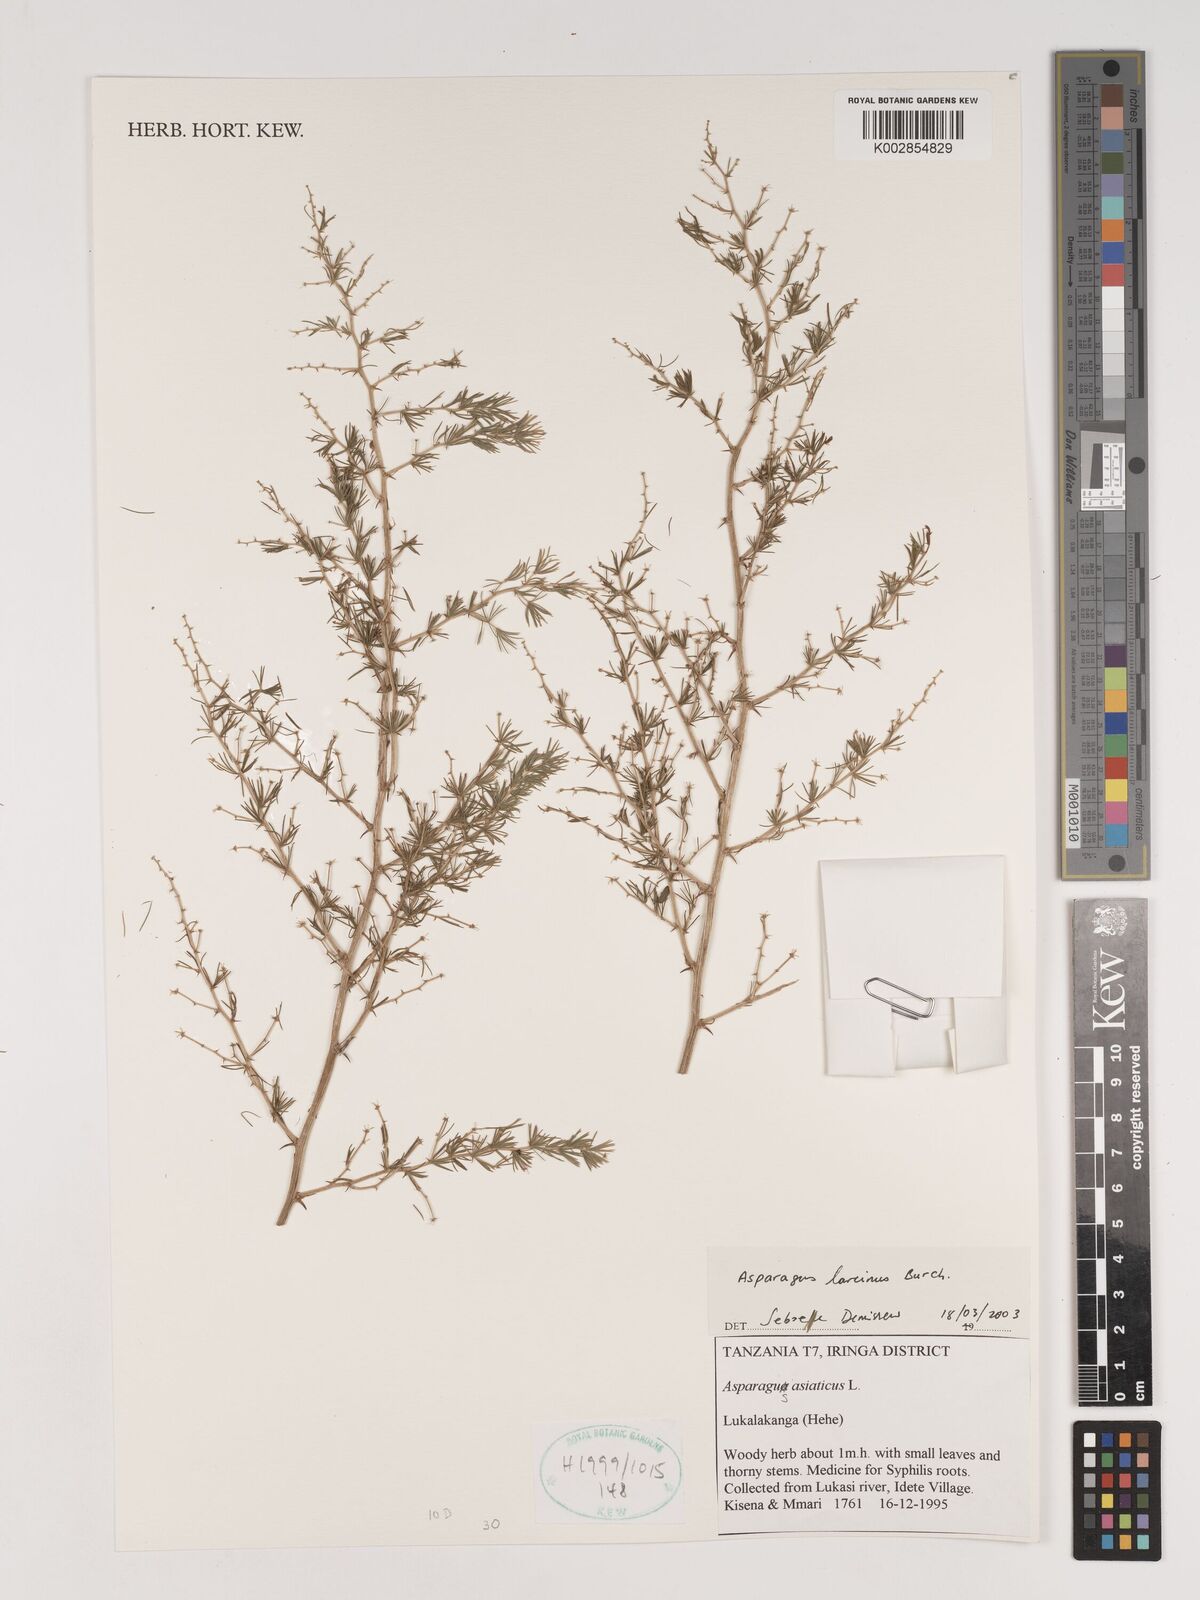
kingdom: Plantae
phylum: Tracheophyta
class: Liliopsida
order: Asparagales
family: Asparagaceae
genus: Asparagus
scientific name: Asparagus laricinus
